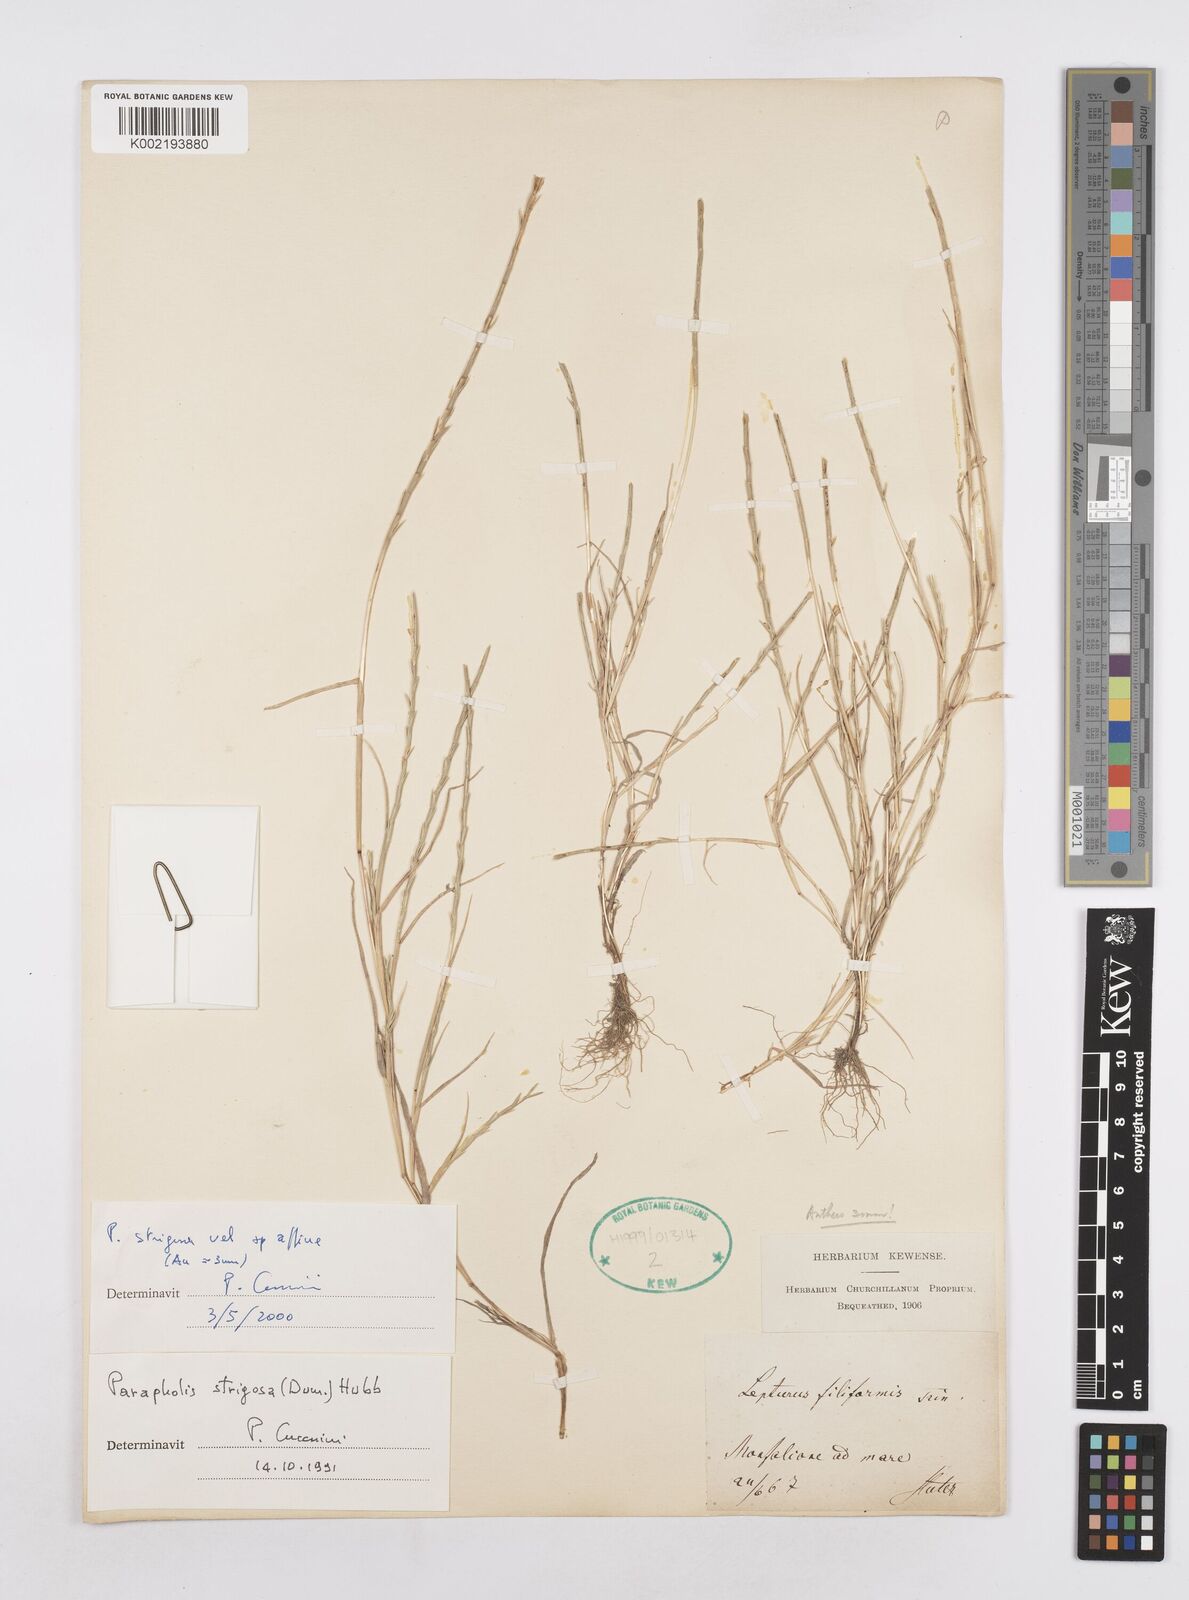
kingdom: Plantae
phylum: Tracheophyta
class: Liliopsida
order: Poales
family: Poaceae
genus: Parapholis
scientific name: Parapholis strigosa
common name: Hard-grass
